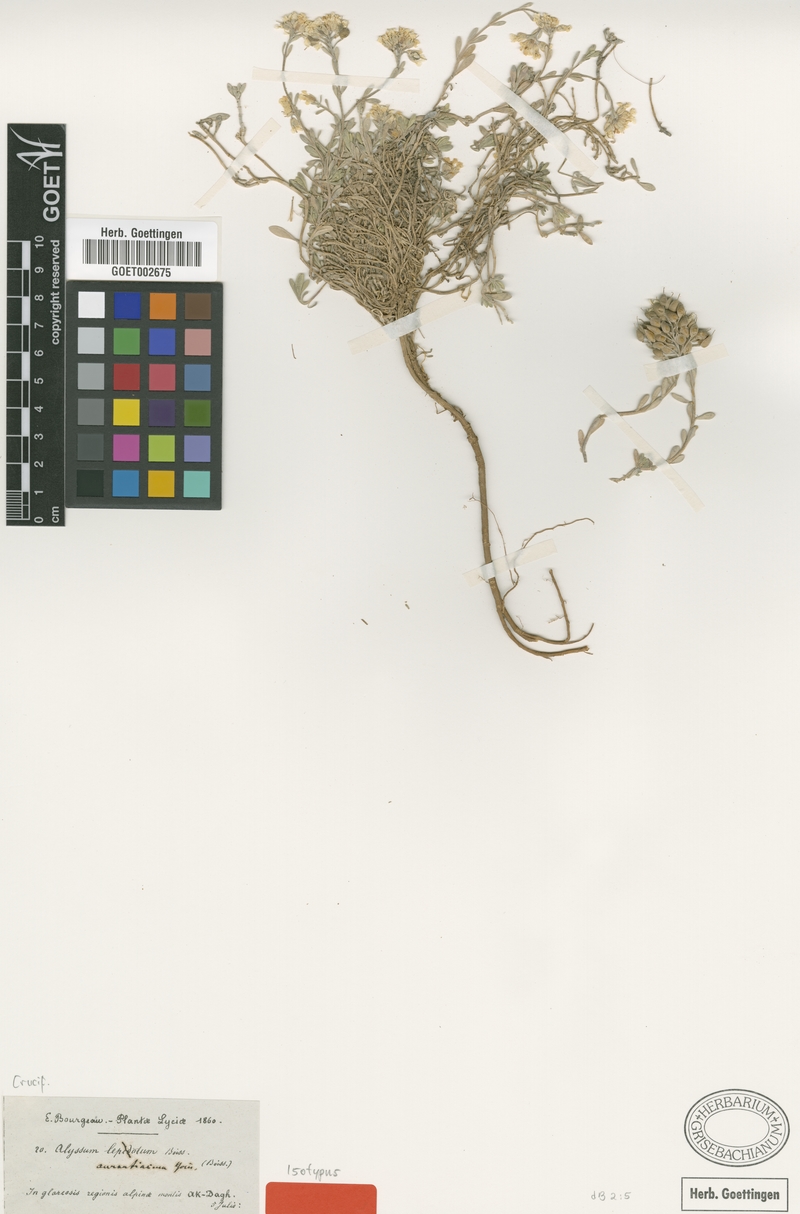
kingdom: Plantae
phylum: Tracheophyta
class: Magnoliopsida
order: Brassicales
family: Brassicaceae
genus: Alyssum
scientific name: Alyssum aurantiacum
